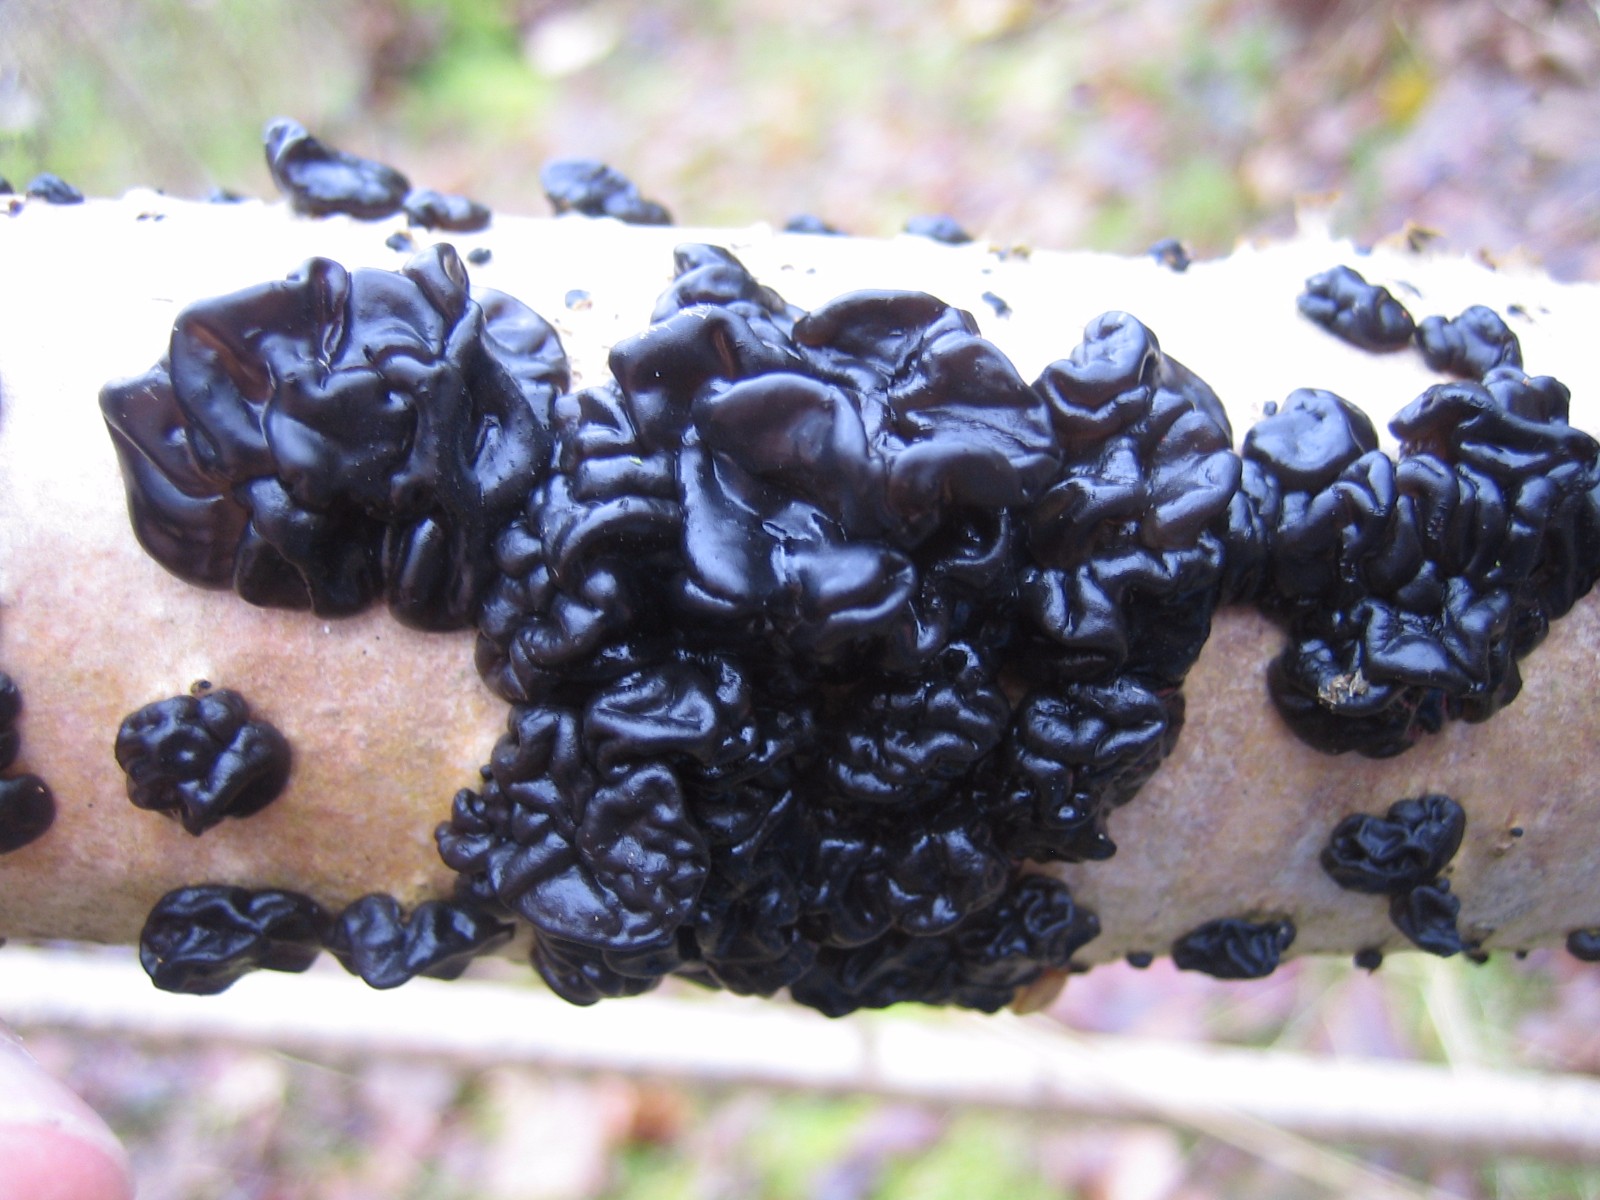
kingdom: Fungi
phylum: Basidiomycota
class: Agaricomycetes
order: Auriculariales
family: Auriculariaceae
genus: Exidia
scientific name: Exidia nigricans
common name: almindelig bævretop
